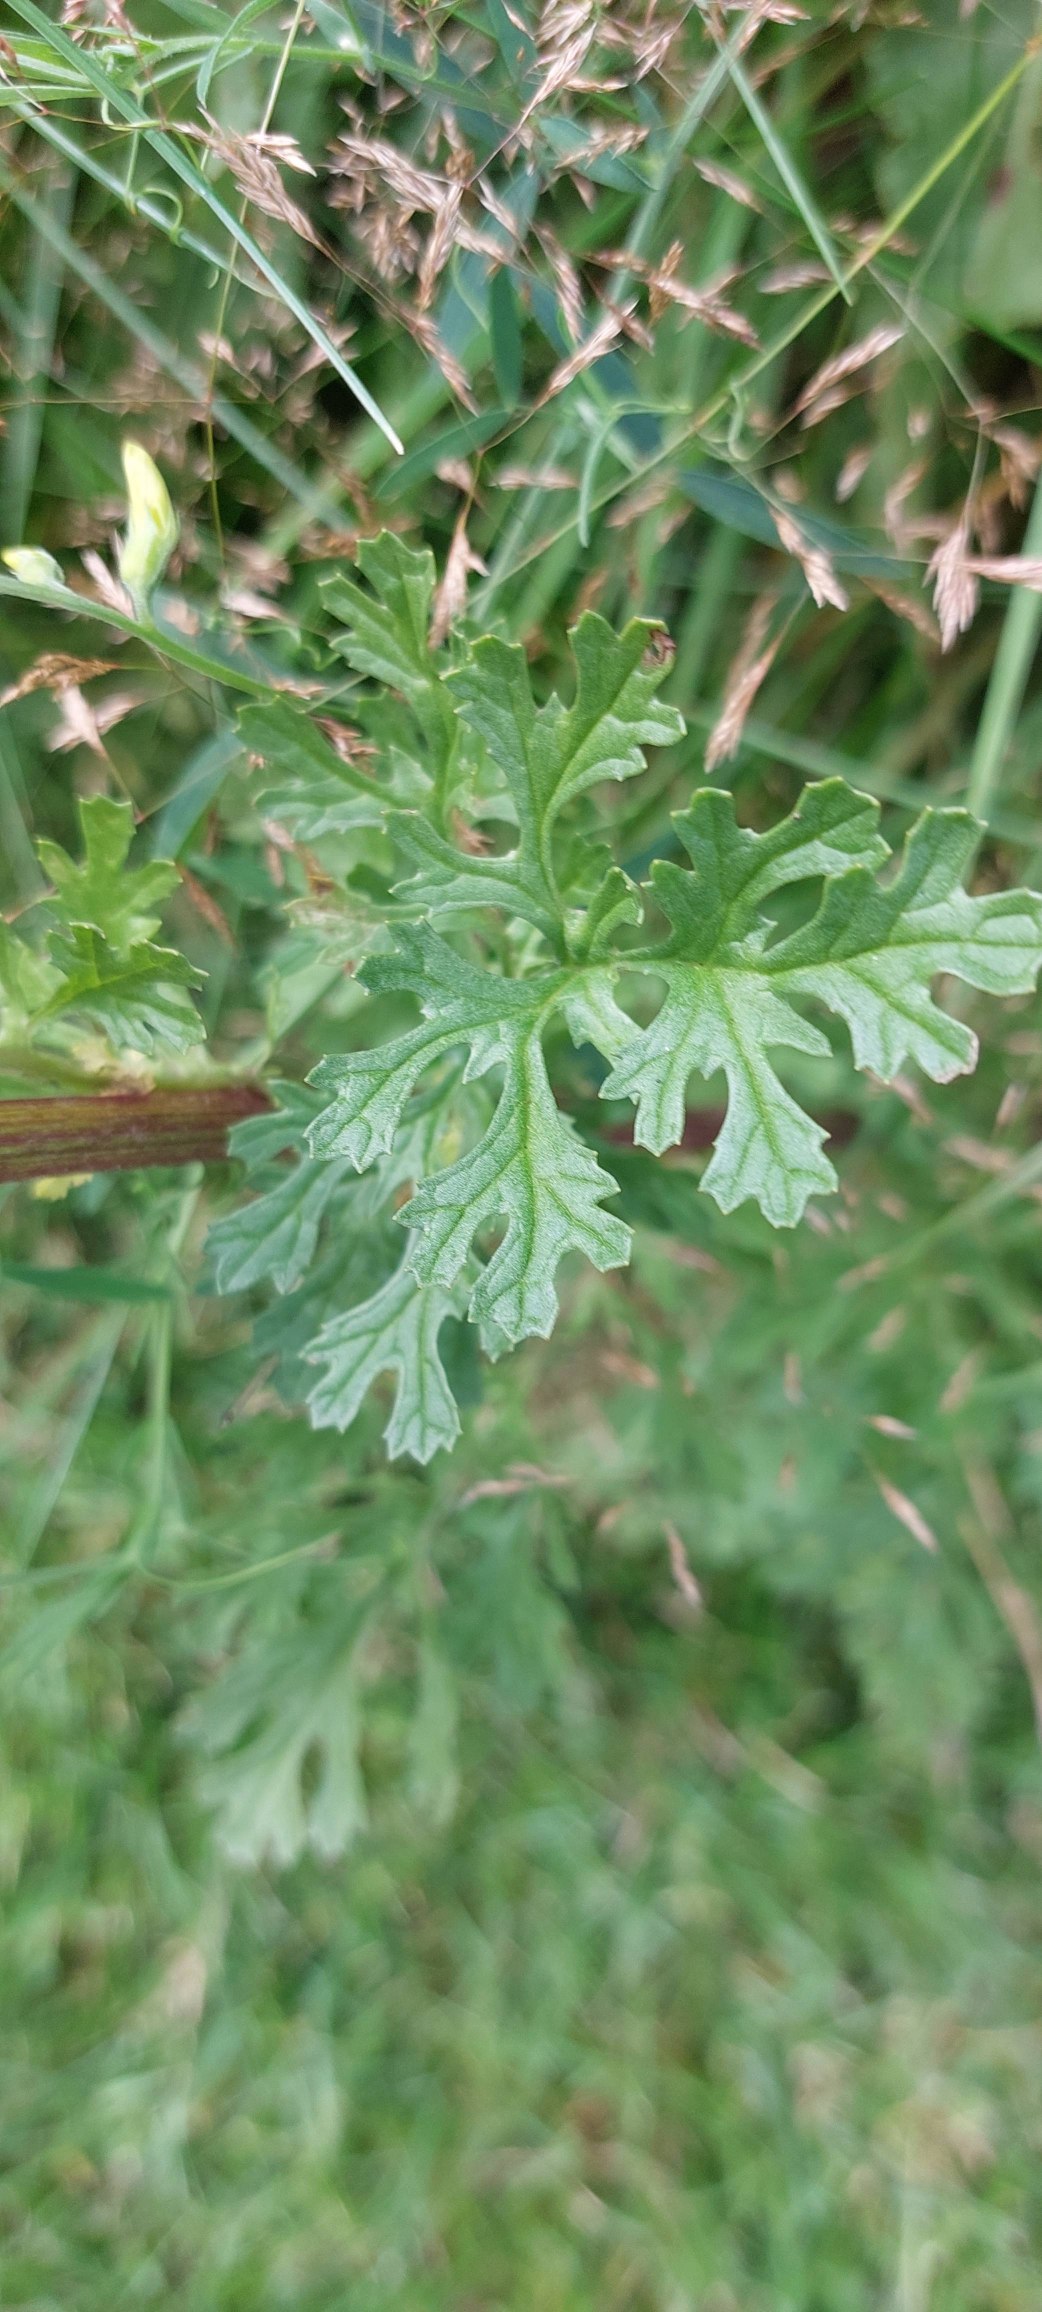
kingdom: Plantae
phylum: Tracheophyta
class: Magnoliopsida
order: Asterales
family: Asteraceae
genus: Jacobaea
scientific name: Jacobaea vulgaris
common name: Eng-brandbæger
